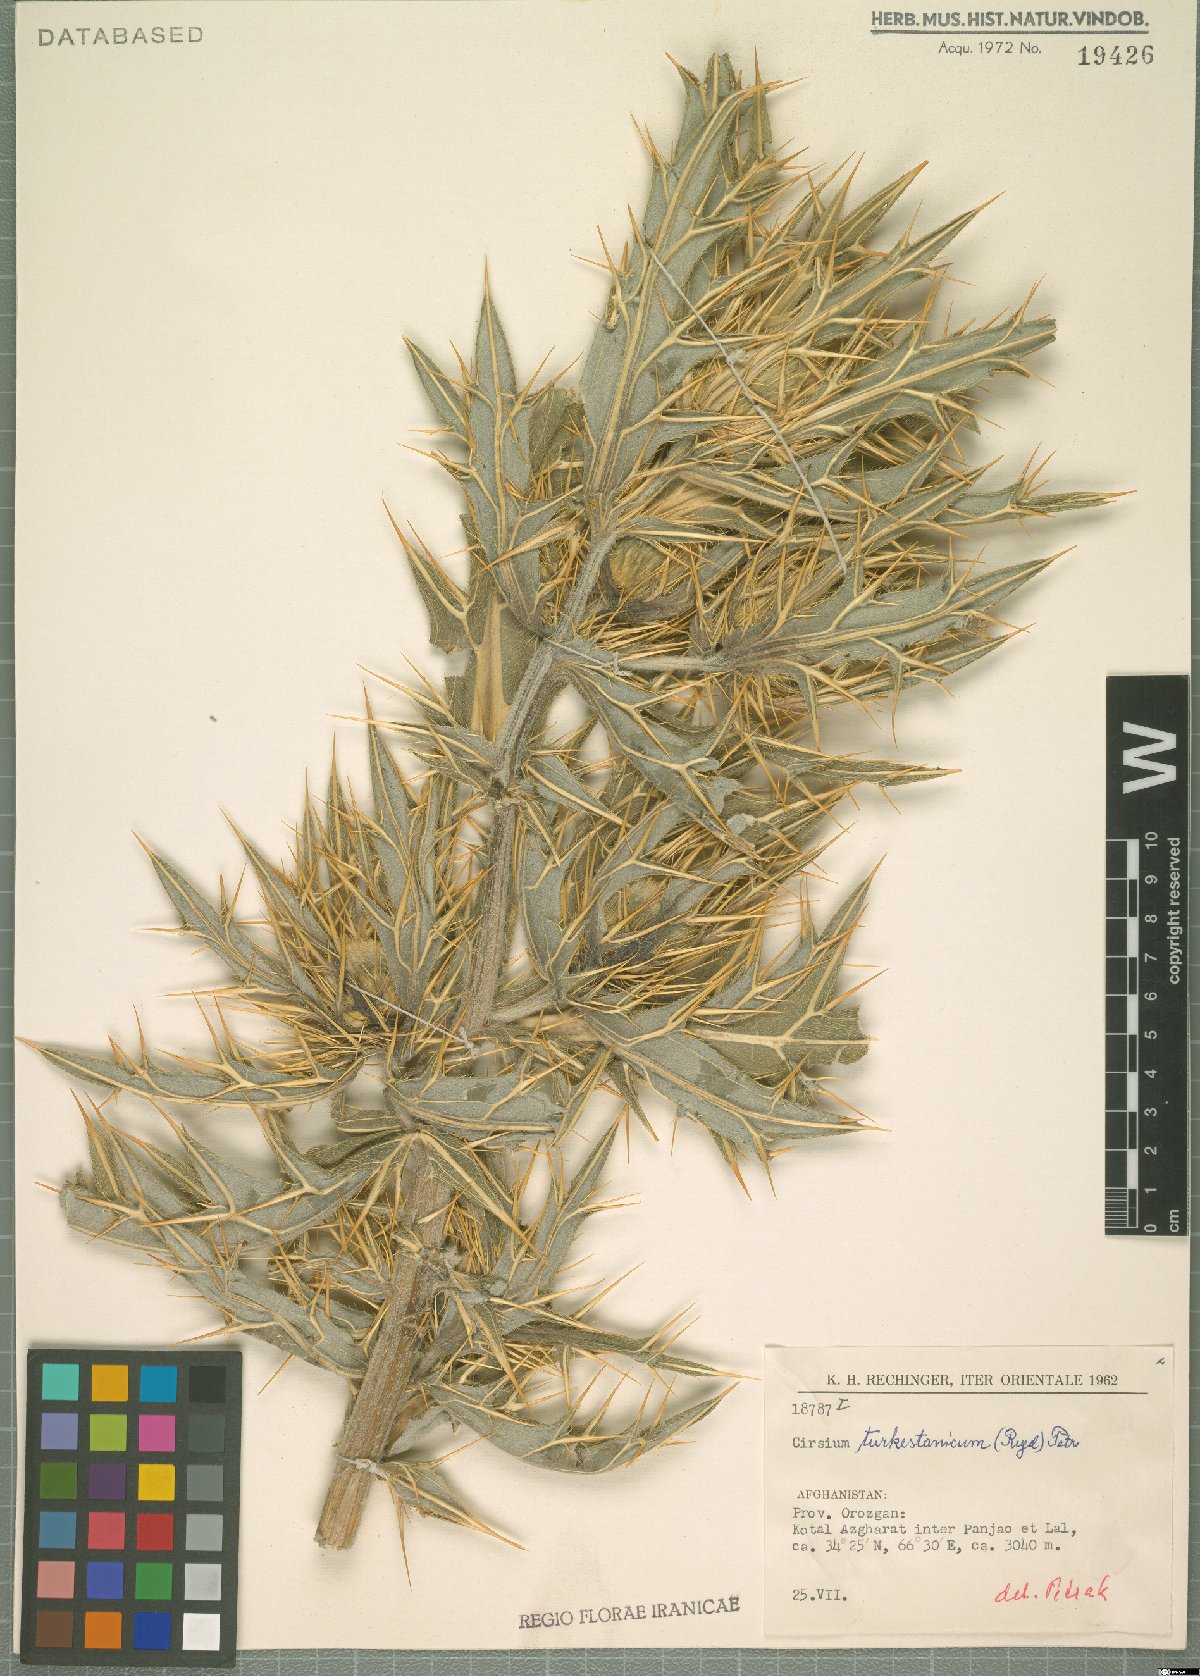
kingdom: Plantae
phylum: Tracheophyta
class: Magnoliopsida
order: Asterales
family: Asteraceae
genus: Lophiolepis
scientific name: Lophiolepis turkestanica
